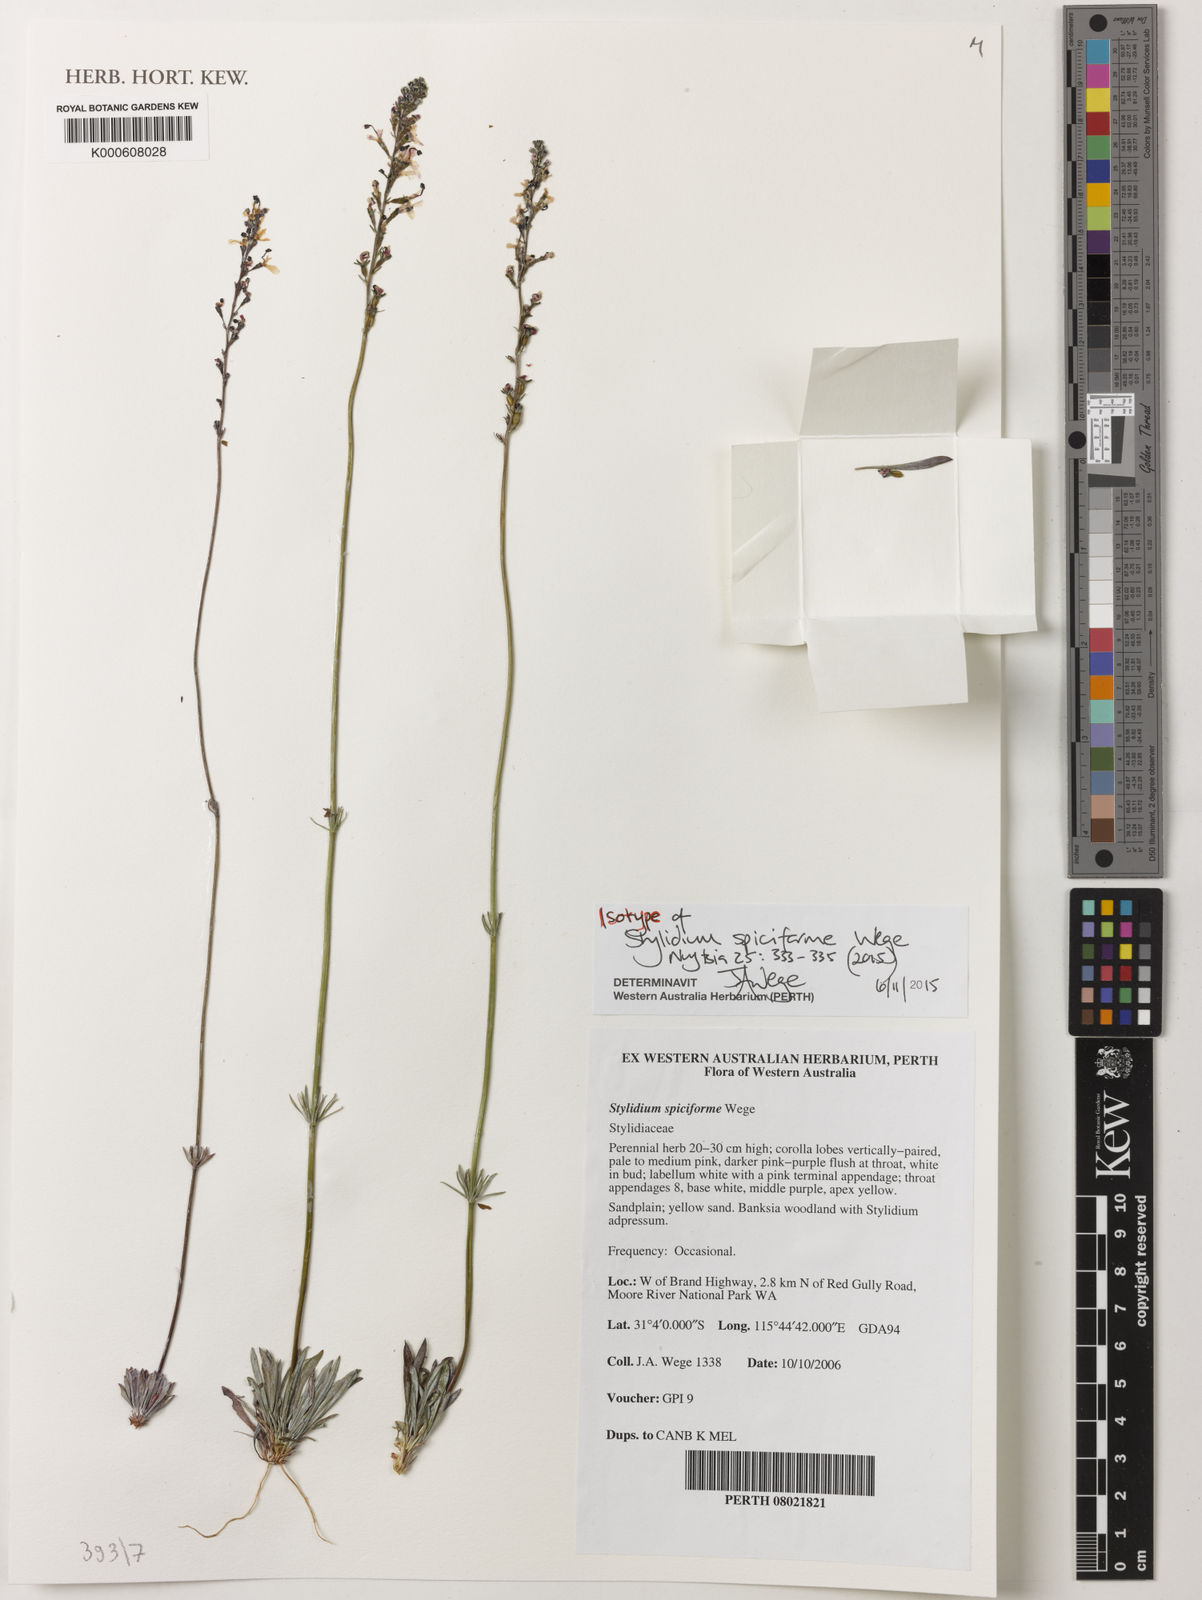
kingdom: Plantae
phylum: Tracheophyta
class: Magnoliopsida
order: Asterales
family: Stylidiaceae
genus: Stylidium
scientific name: Stylidium
